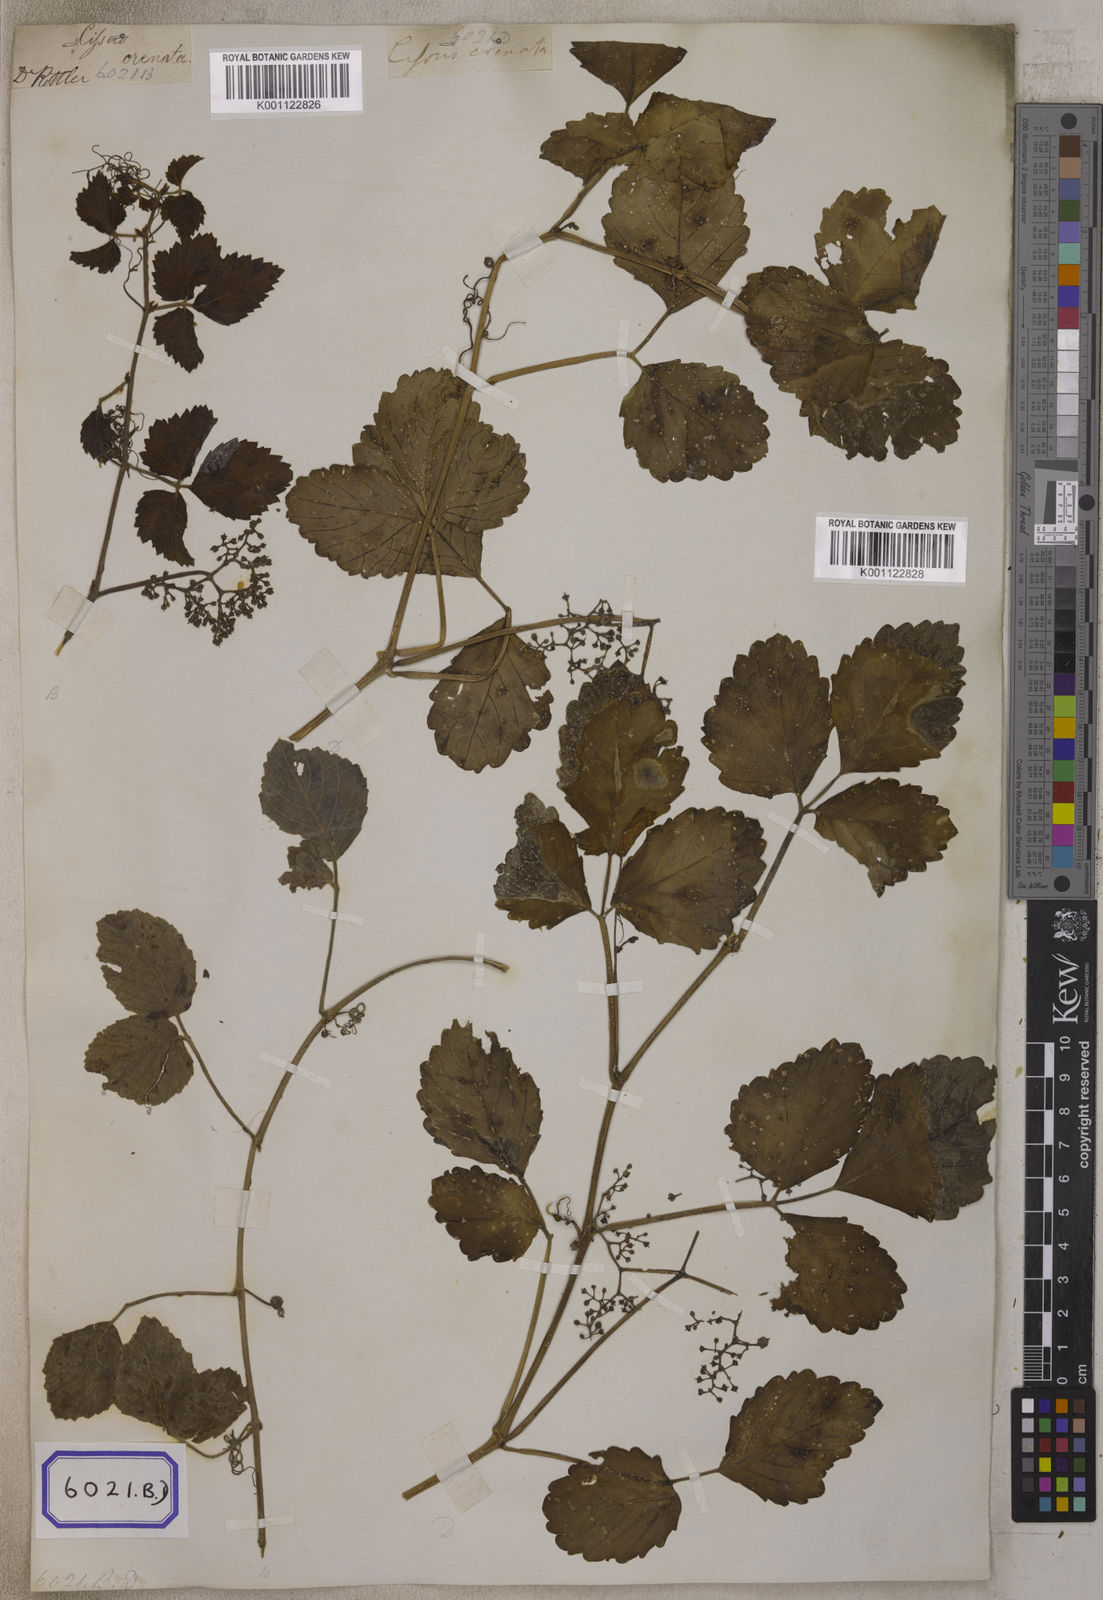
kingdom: Plantae
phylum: Tracheophyta
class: Magnoliopsida
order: Vitales
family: Vitaceae
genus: Causonis
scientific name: Causonis trifolia
